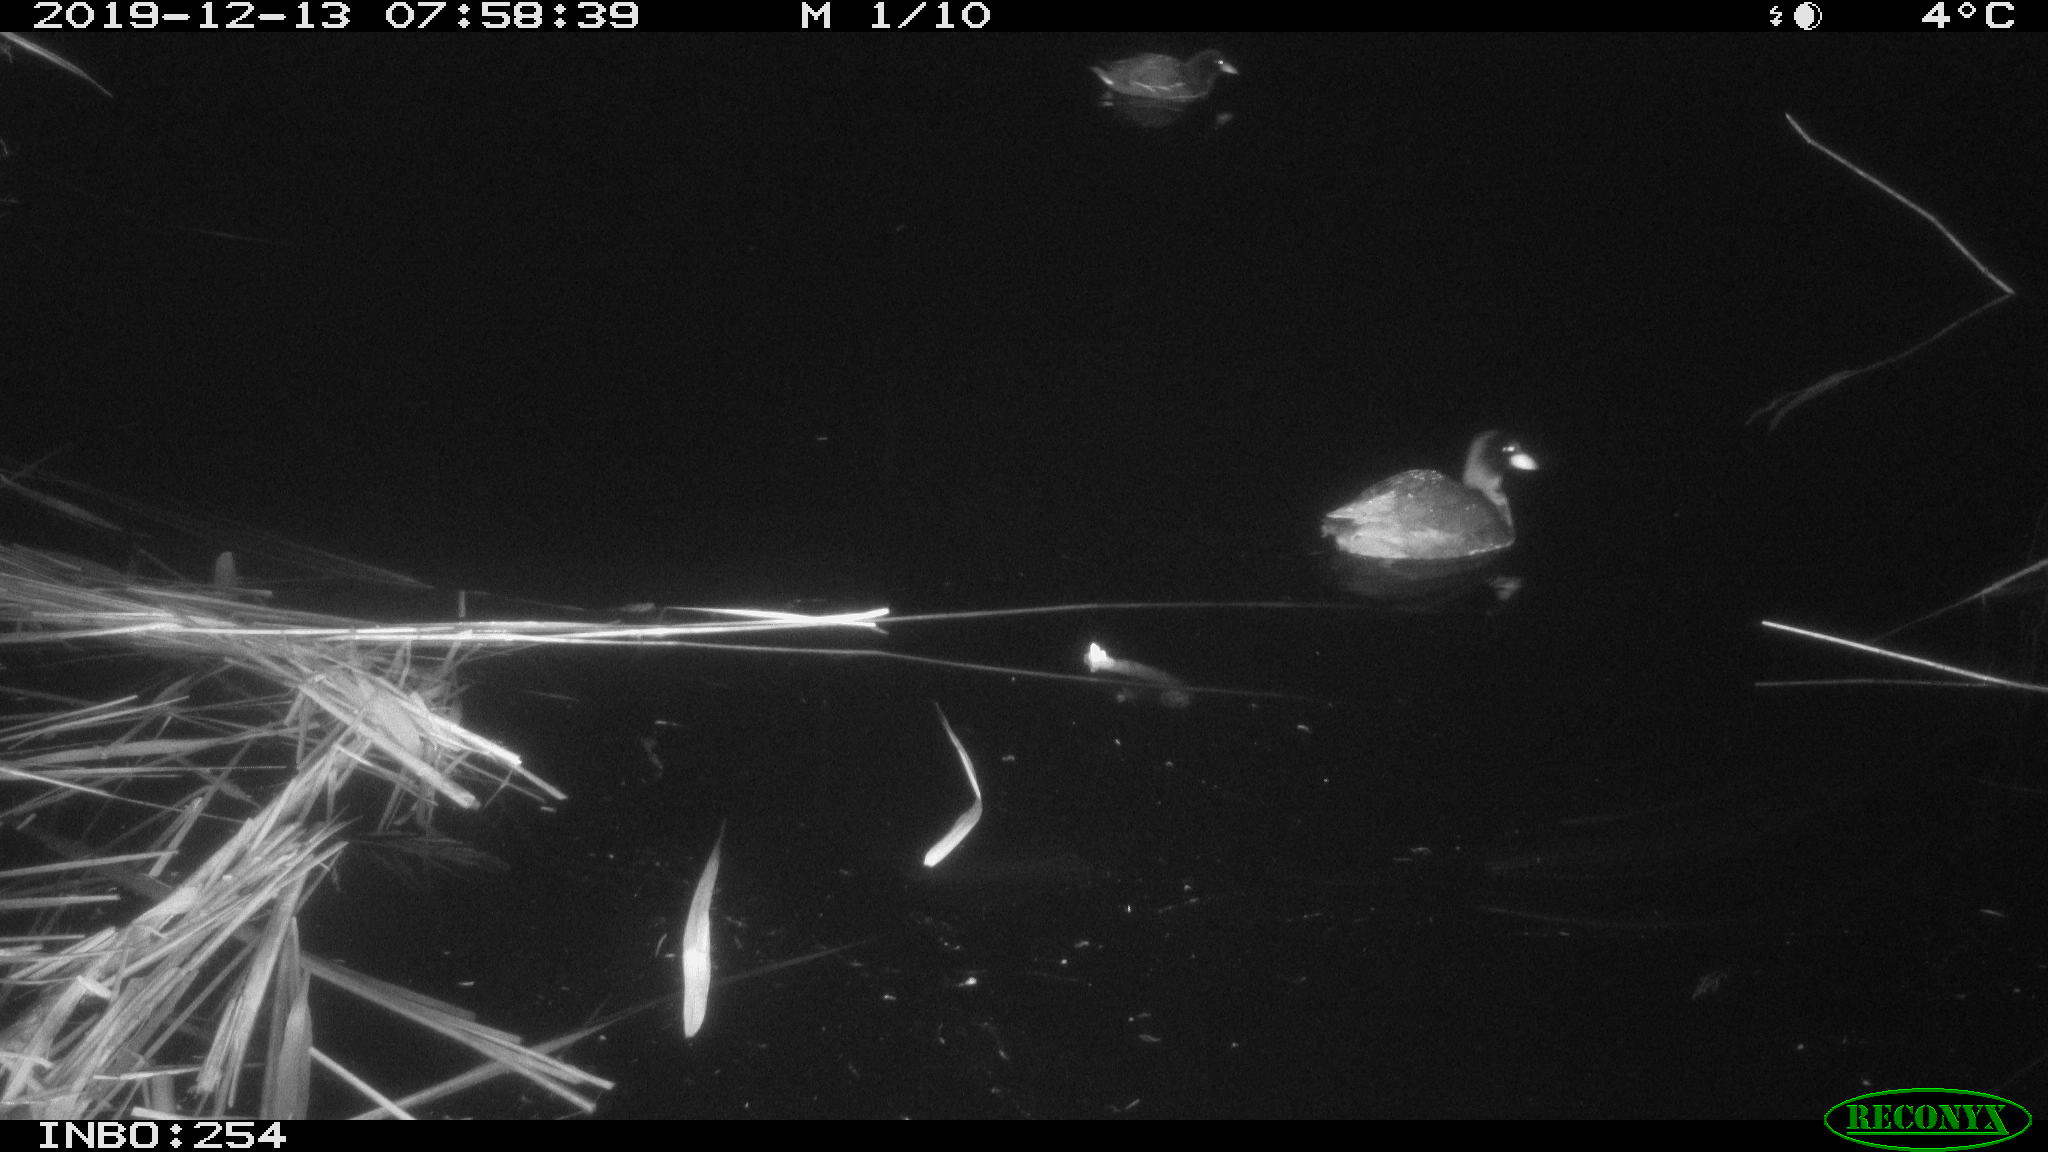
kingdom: Animalia
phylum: Chordata
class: Aves
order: Gruiformes
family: Rallidae
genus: Fulica
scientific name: Fulica atra
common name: Eurasian coot
